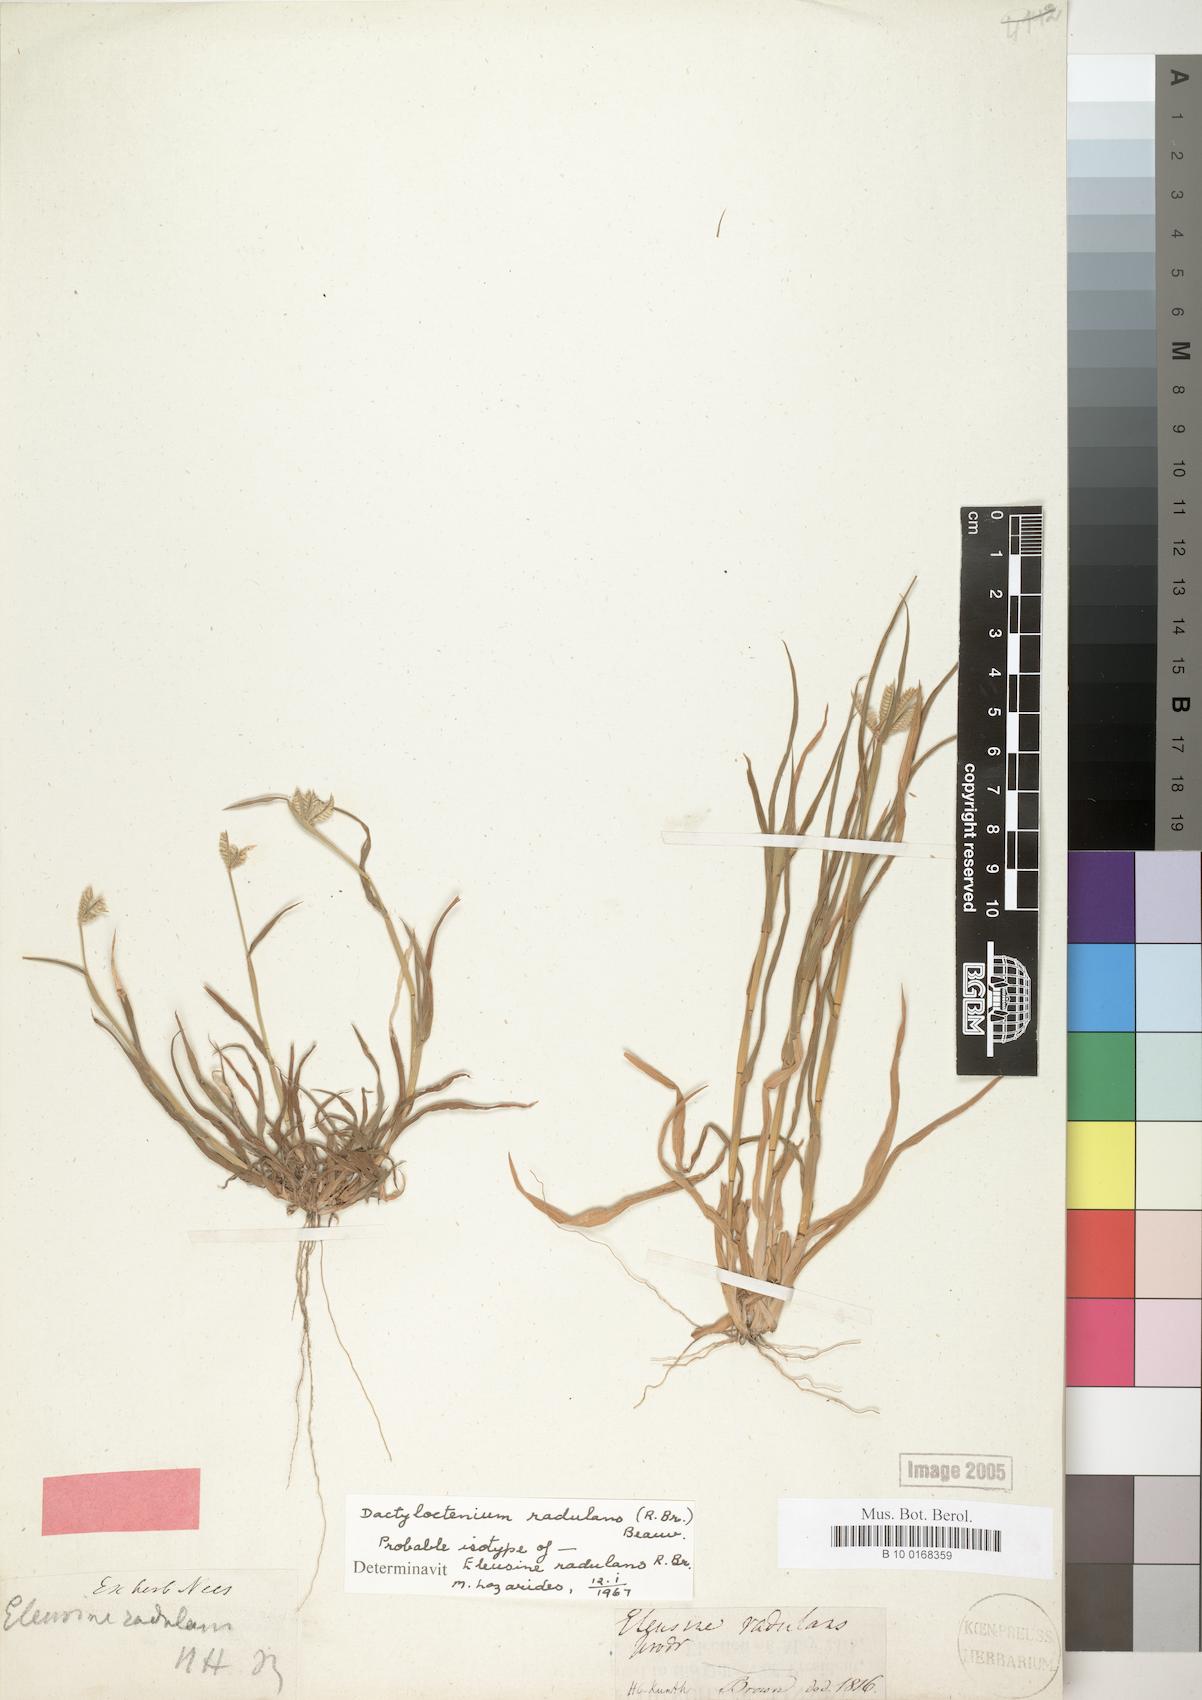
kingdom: Plantae
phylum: Tracheophyta
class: Liliopsida
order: Poales
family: Poaceae
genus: Dactyloctenium
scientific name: Dactyloctenium radulans
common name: Button-grass
